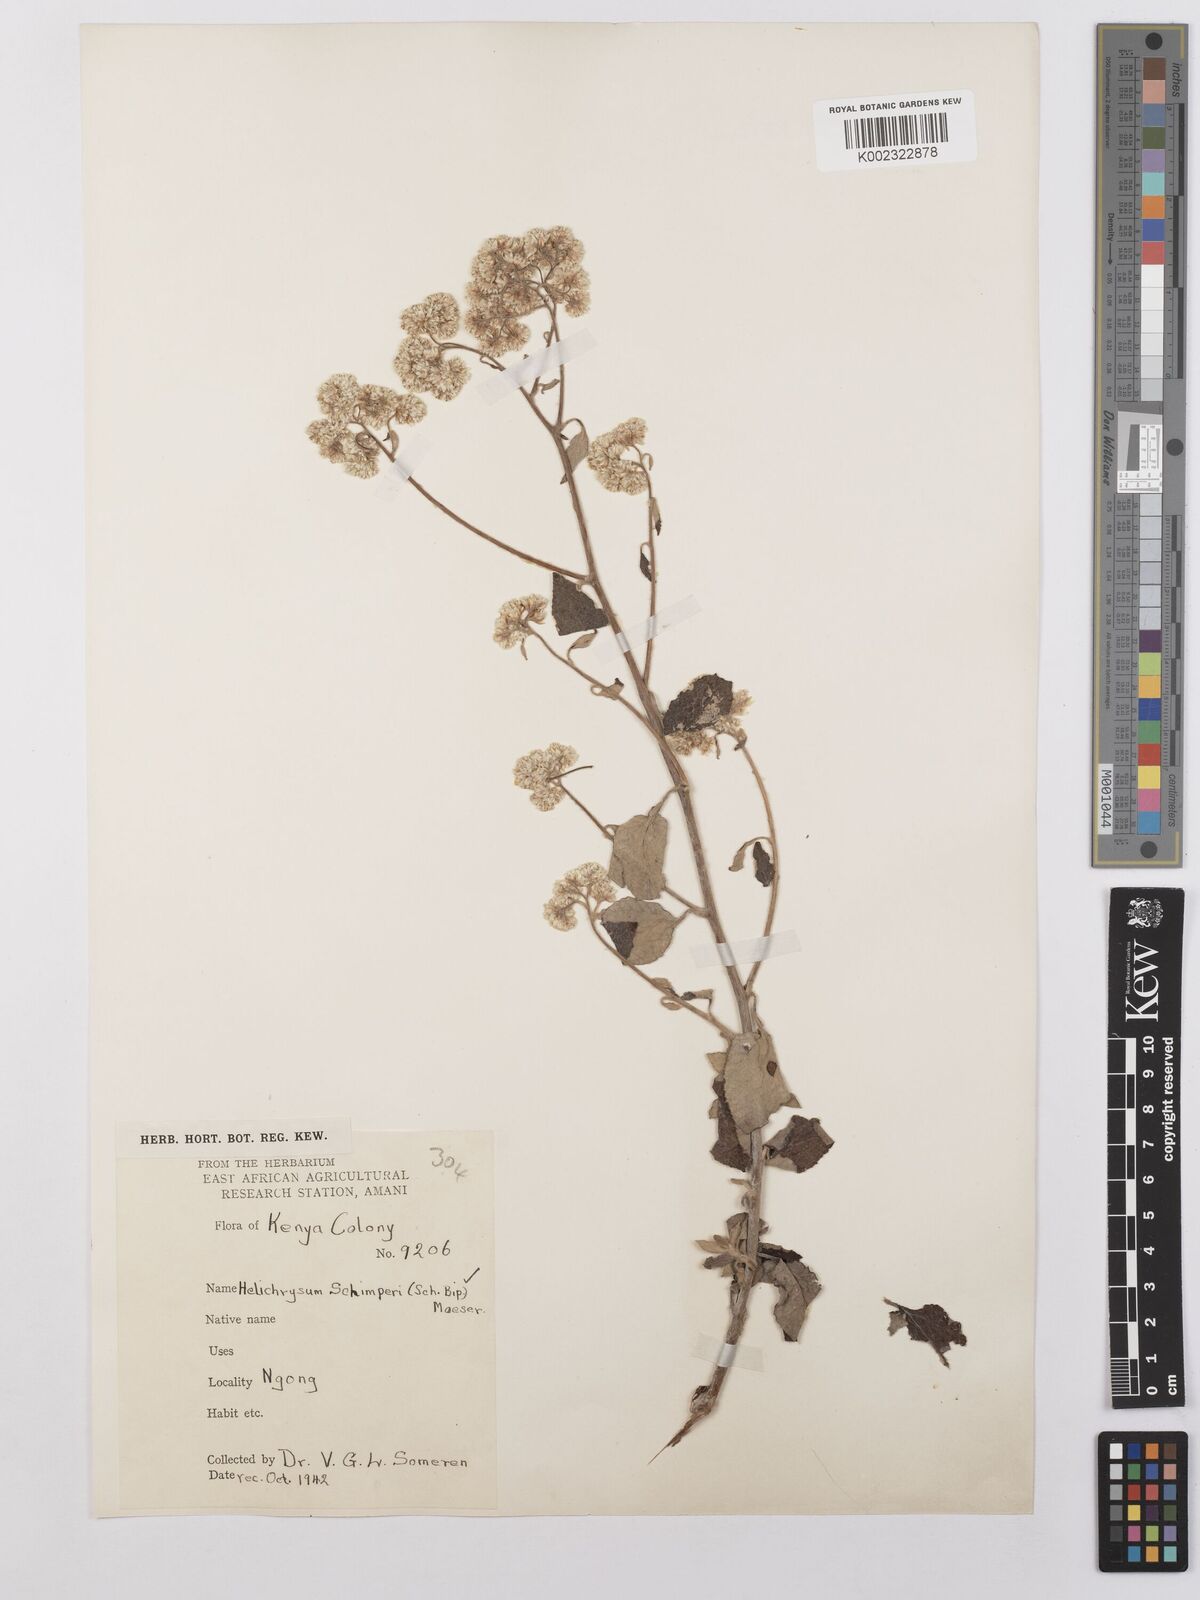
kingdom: Plantae
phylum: Tracheophyta
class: Magnoliopsida
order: Asterales
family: Asteraceae
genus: Helichrysum
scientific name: Helichrysum schimperi
